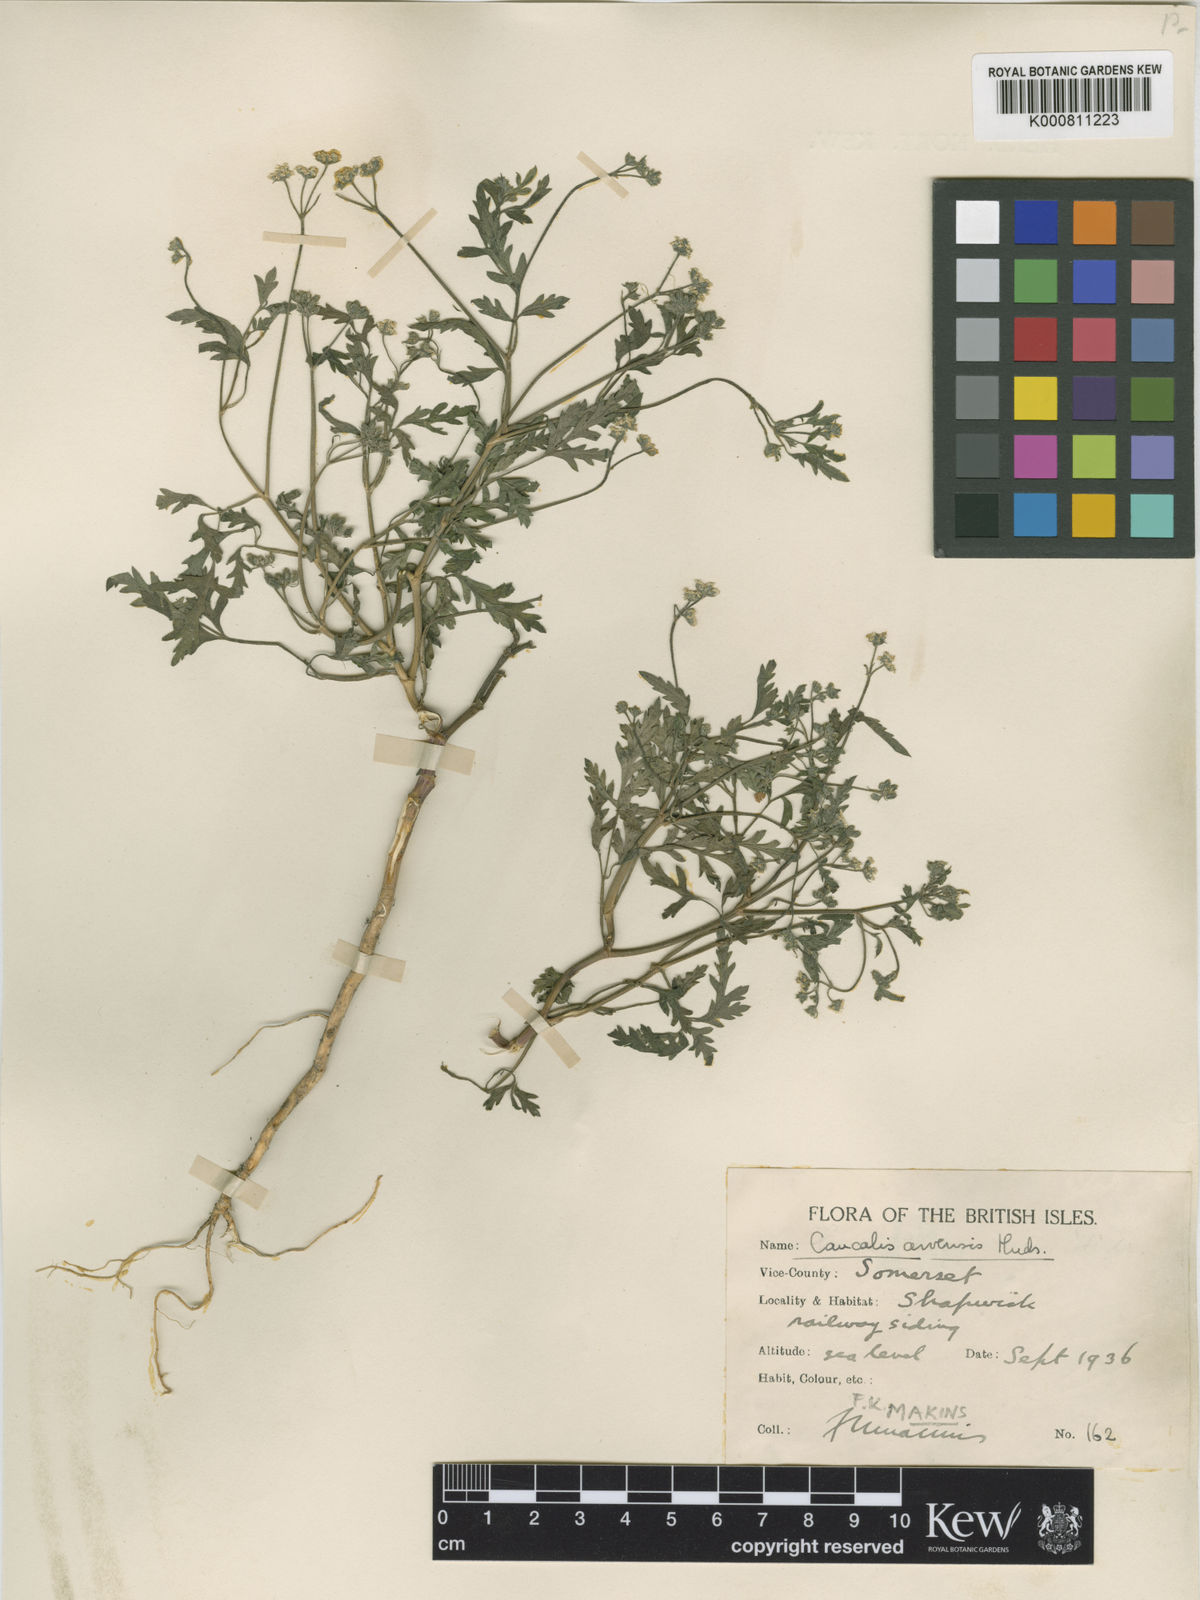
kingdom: Plantae
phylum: Tracheophyta
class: Magnoliopsida
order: Apiales
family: Apiaceae
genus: Torilis
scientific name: Torilis arvensis
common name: Spreading hedge-parsley
